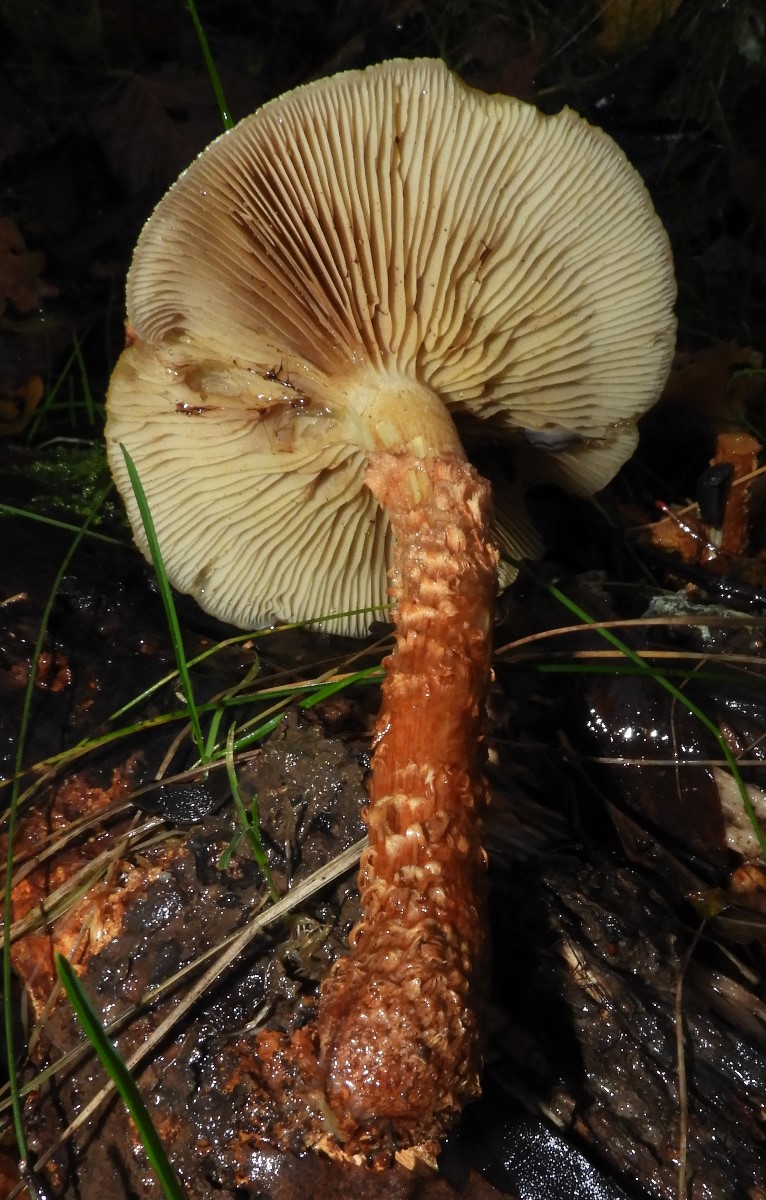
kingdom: Fungi
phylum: Basidiomycota
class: Agaricomycetes
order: Agaricales
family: Strophariaceae
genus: Pholiota
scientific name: Pholiota
